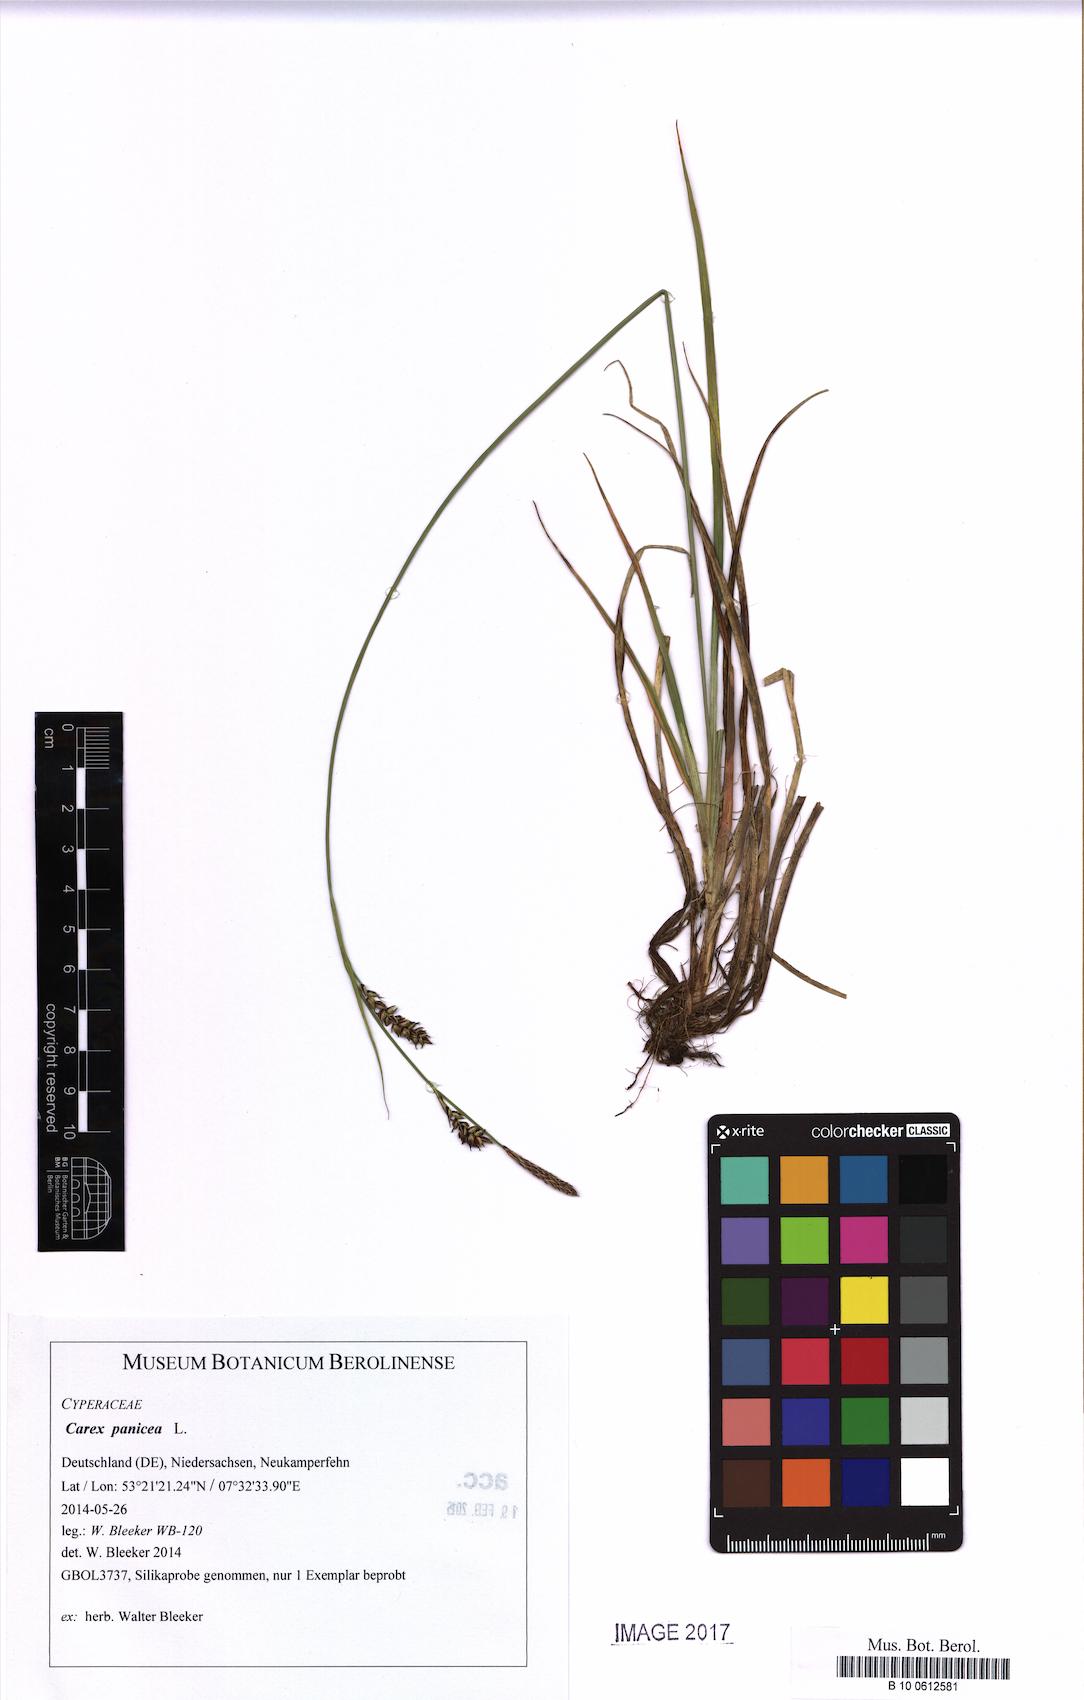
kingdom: Plantae
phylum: Tracheophyta
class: Liliopsida
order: Poales
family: Cyperaceae
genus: Carex
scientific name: Carex panicea
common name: Carnation sedge
